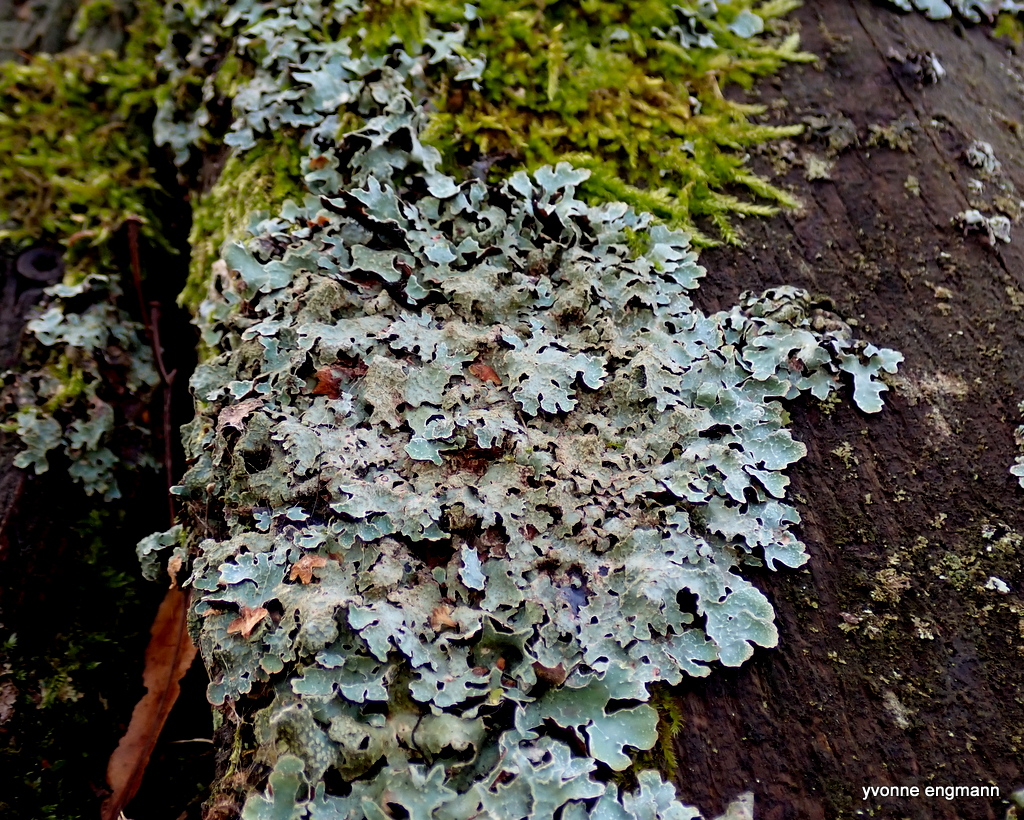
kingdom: Fungi
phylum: Ascomycota
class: Lecanoromycetes
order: Lecanorales
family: Parmeliaceae
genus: Parmelia
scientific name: Parmelia sulcata
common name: rynket skållav
